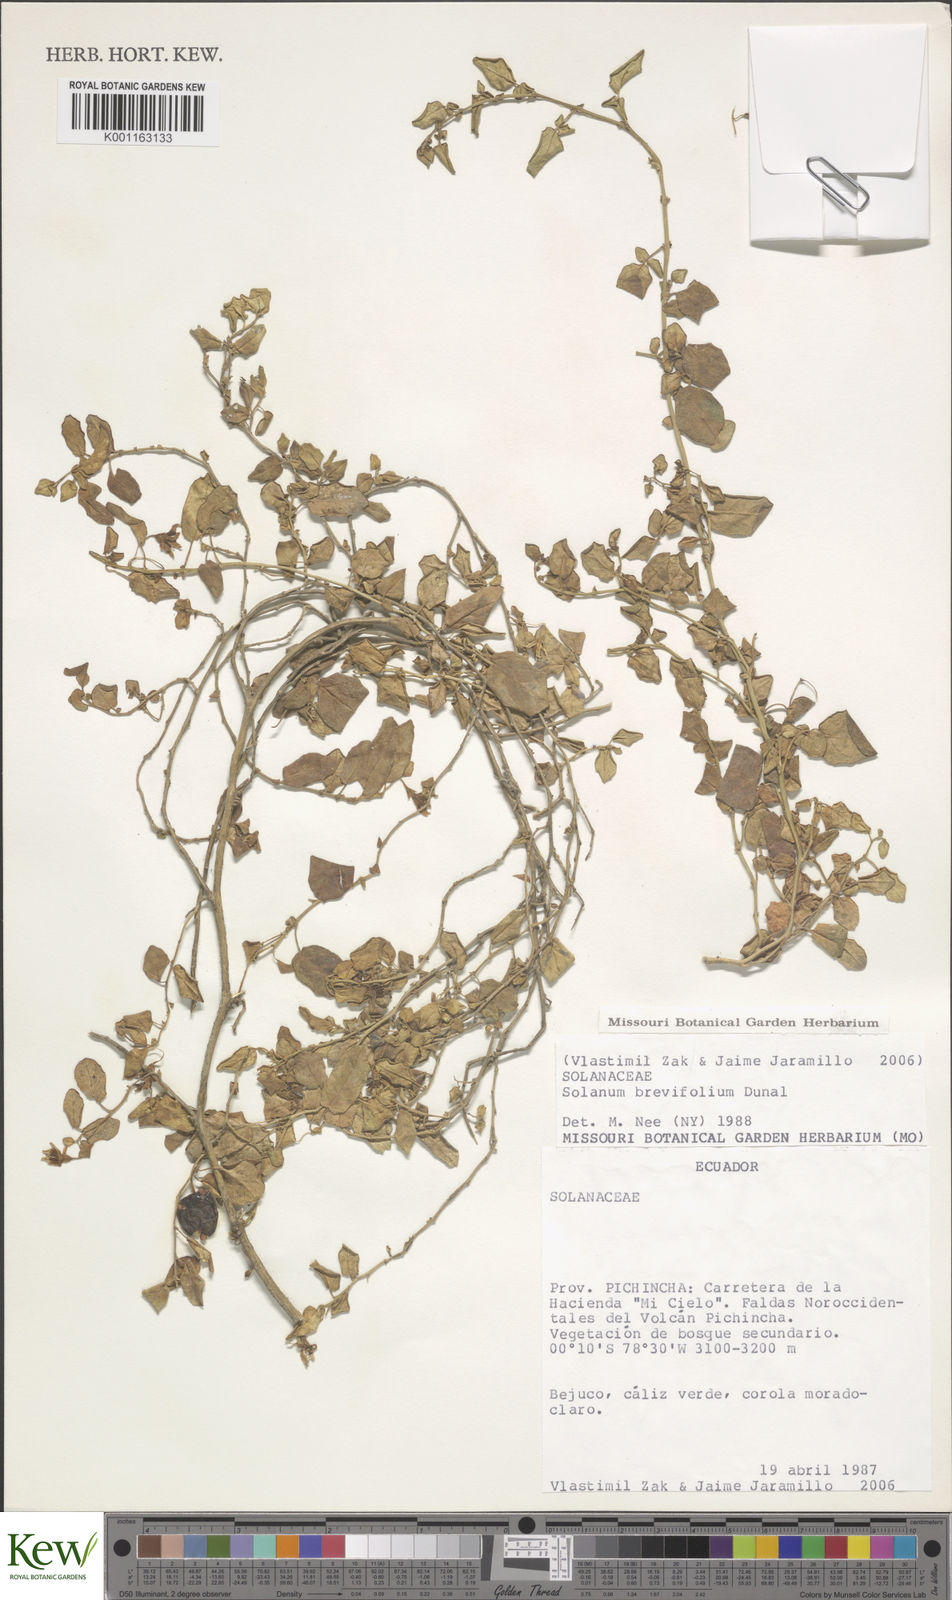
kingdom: Plantae
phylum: Tracheophyta
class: Magnoliopsida
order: Solanales
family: Solanaceae
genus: Solanum
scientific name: Solanum brevifolium
